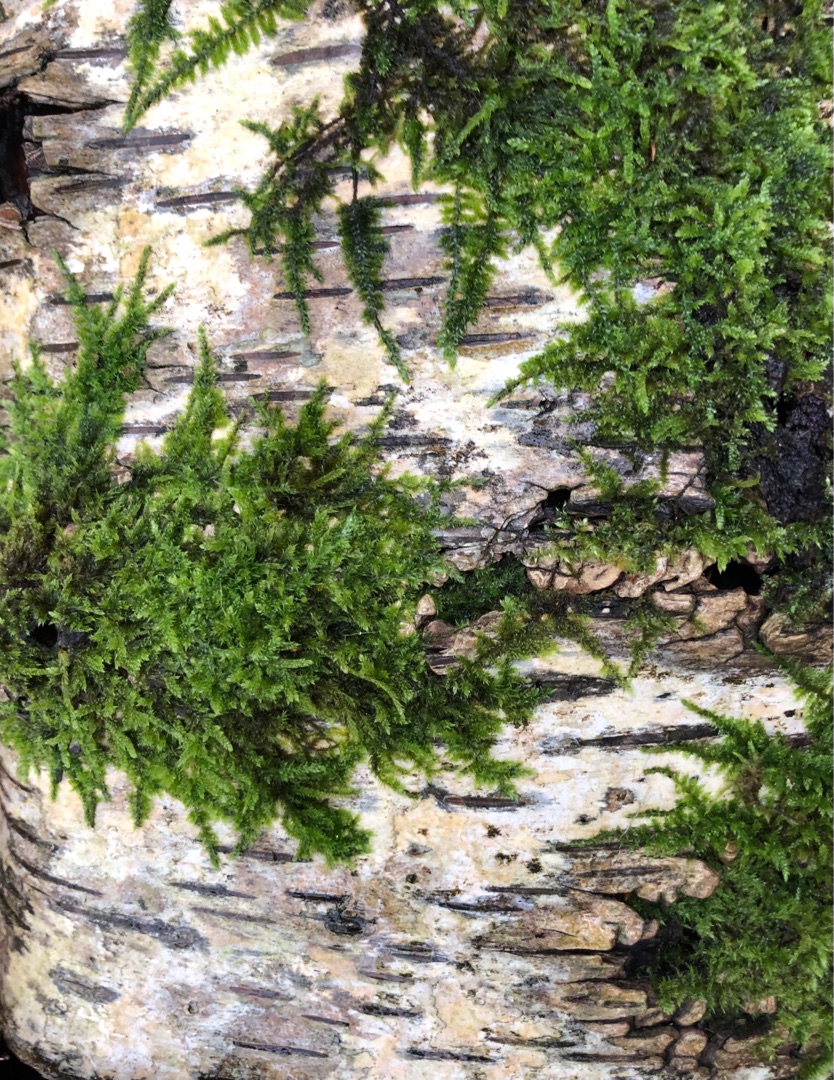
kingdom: Plantae
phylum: Bryophyta
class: Bryopsida
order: Hypnales
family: Hypnaceae
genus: Hypnum
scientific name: Hypnum cupressiforme
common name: Almindelig cypresmos
